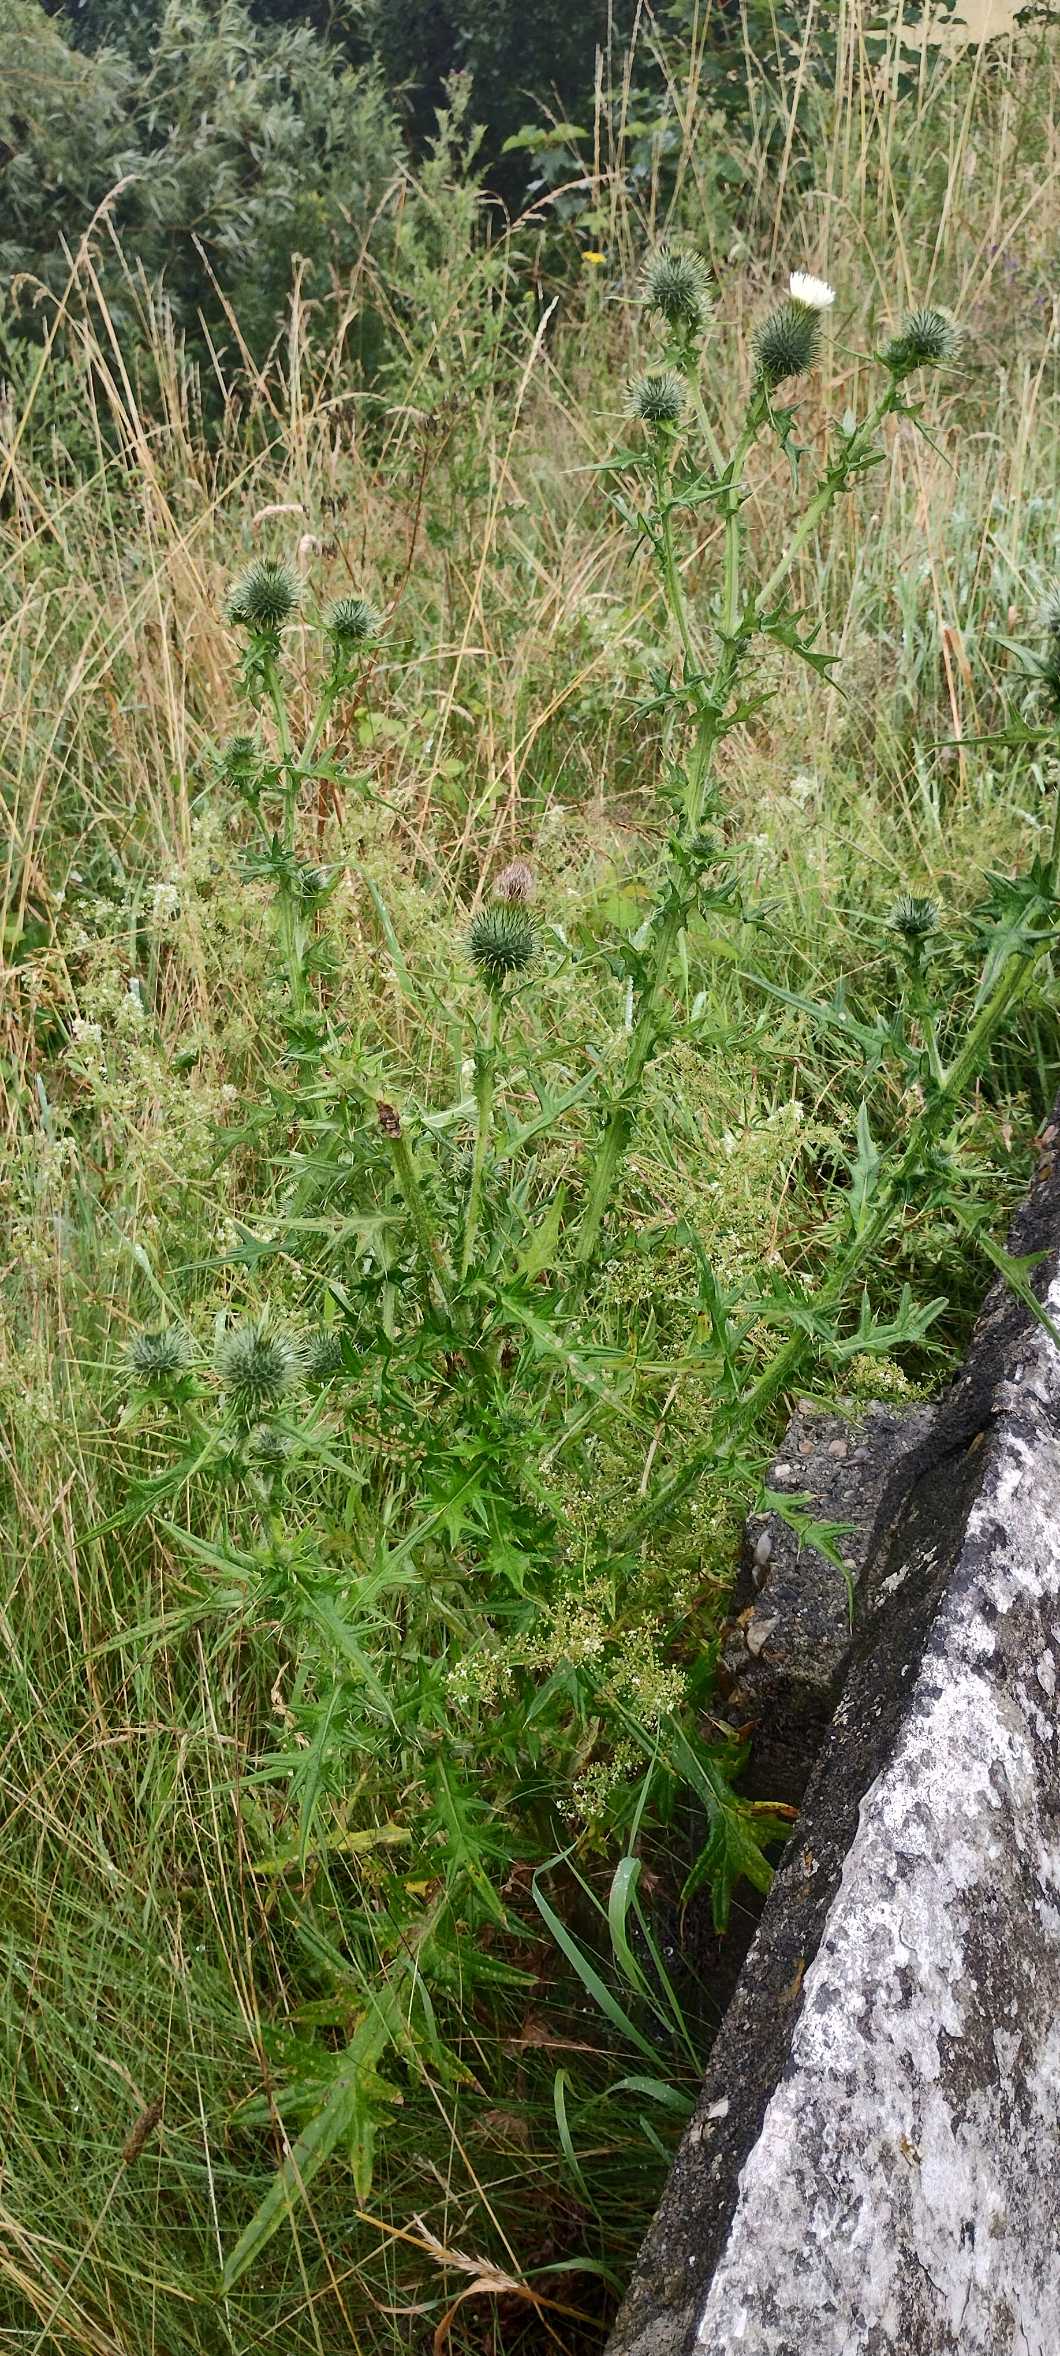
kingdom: Plantae
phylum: Tracheophyta
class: Magnoliopsida
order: Asterales
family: Asteraceae
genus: Cirsium
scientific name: Cirsium vulgare
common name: Horse-tidsel
